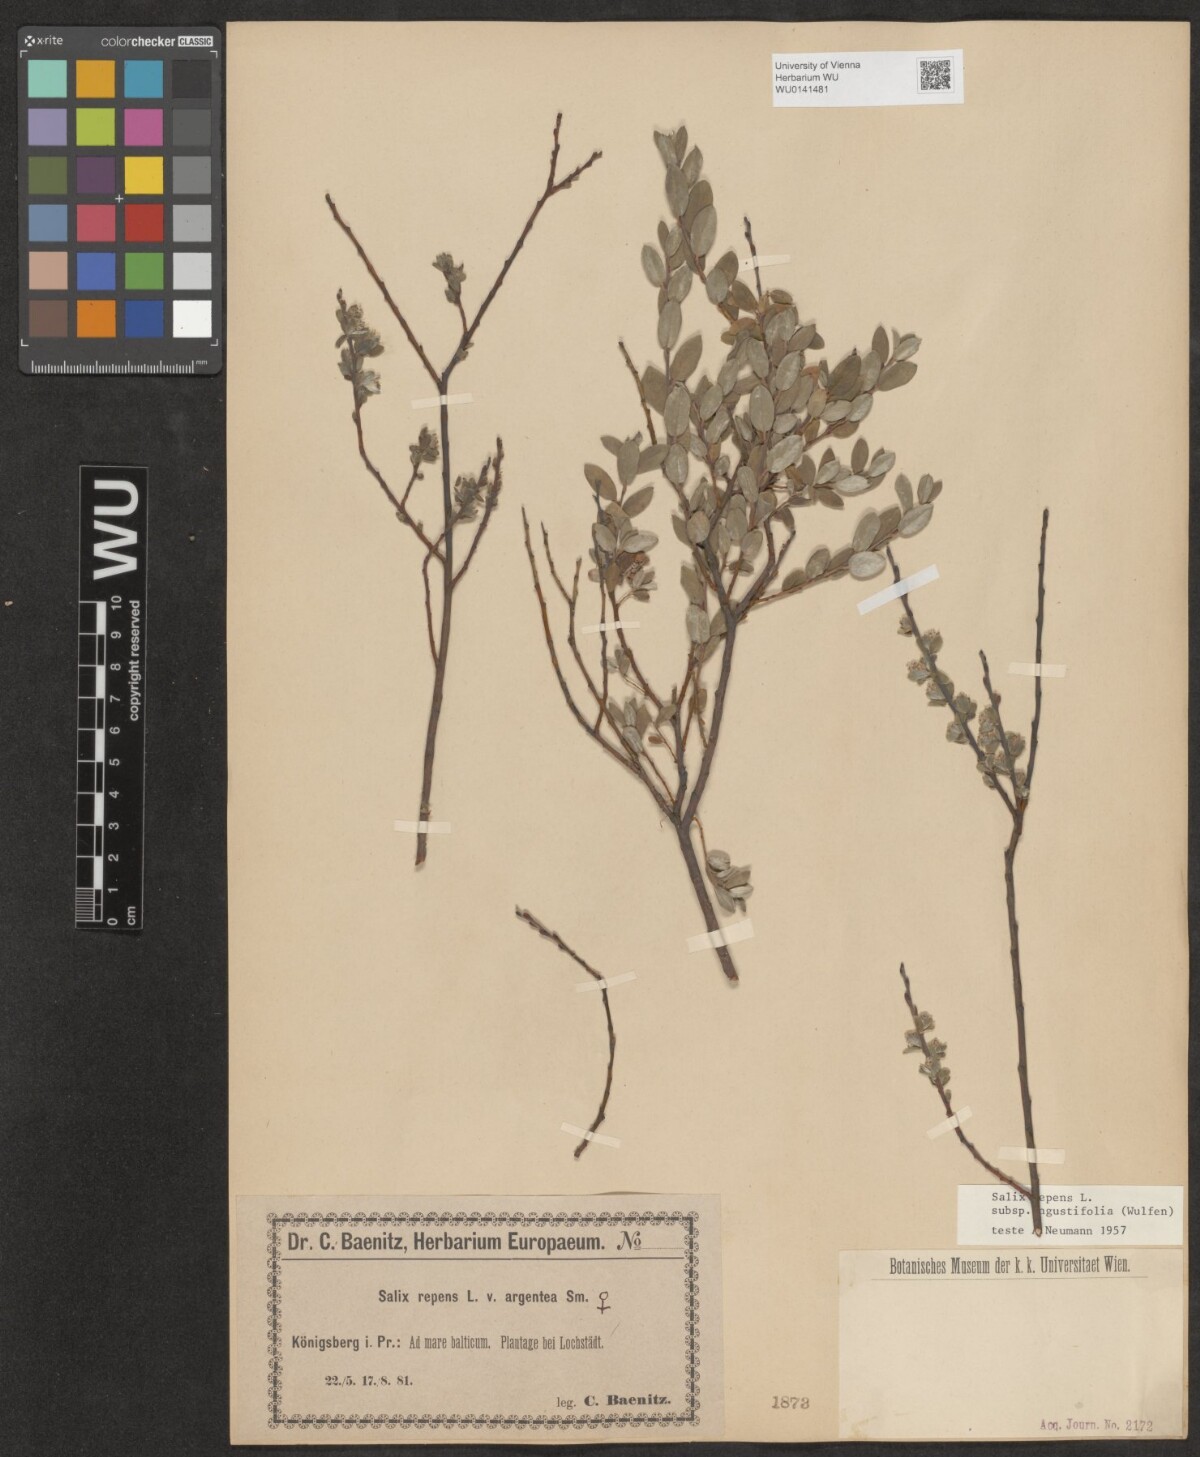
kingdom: Plantae
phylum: Tracheophyta
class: Magnoliopsida
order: Malpighiales
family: Salicaceae
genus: Salix
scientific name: Salix rosmarinifolia
